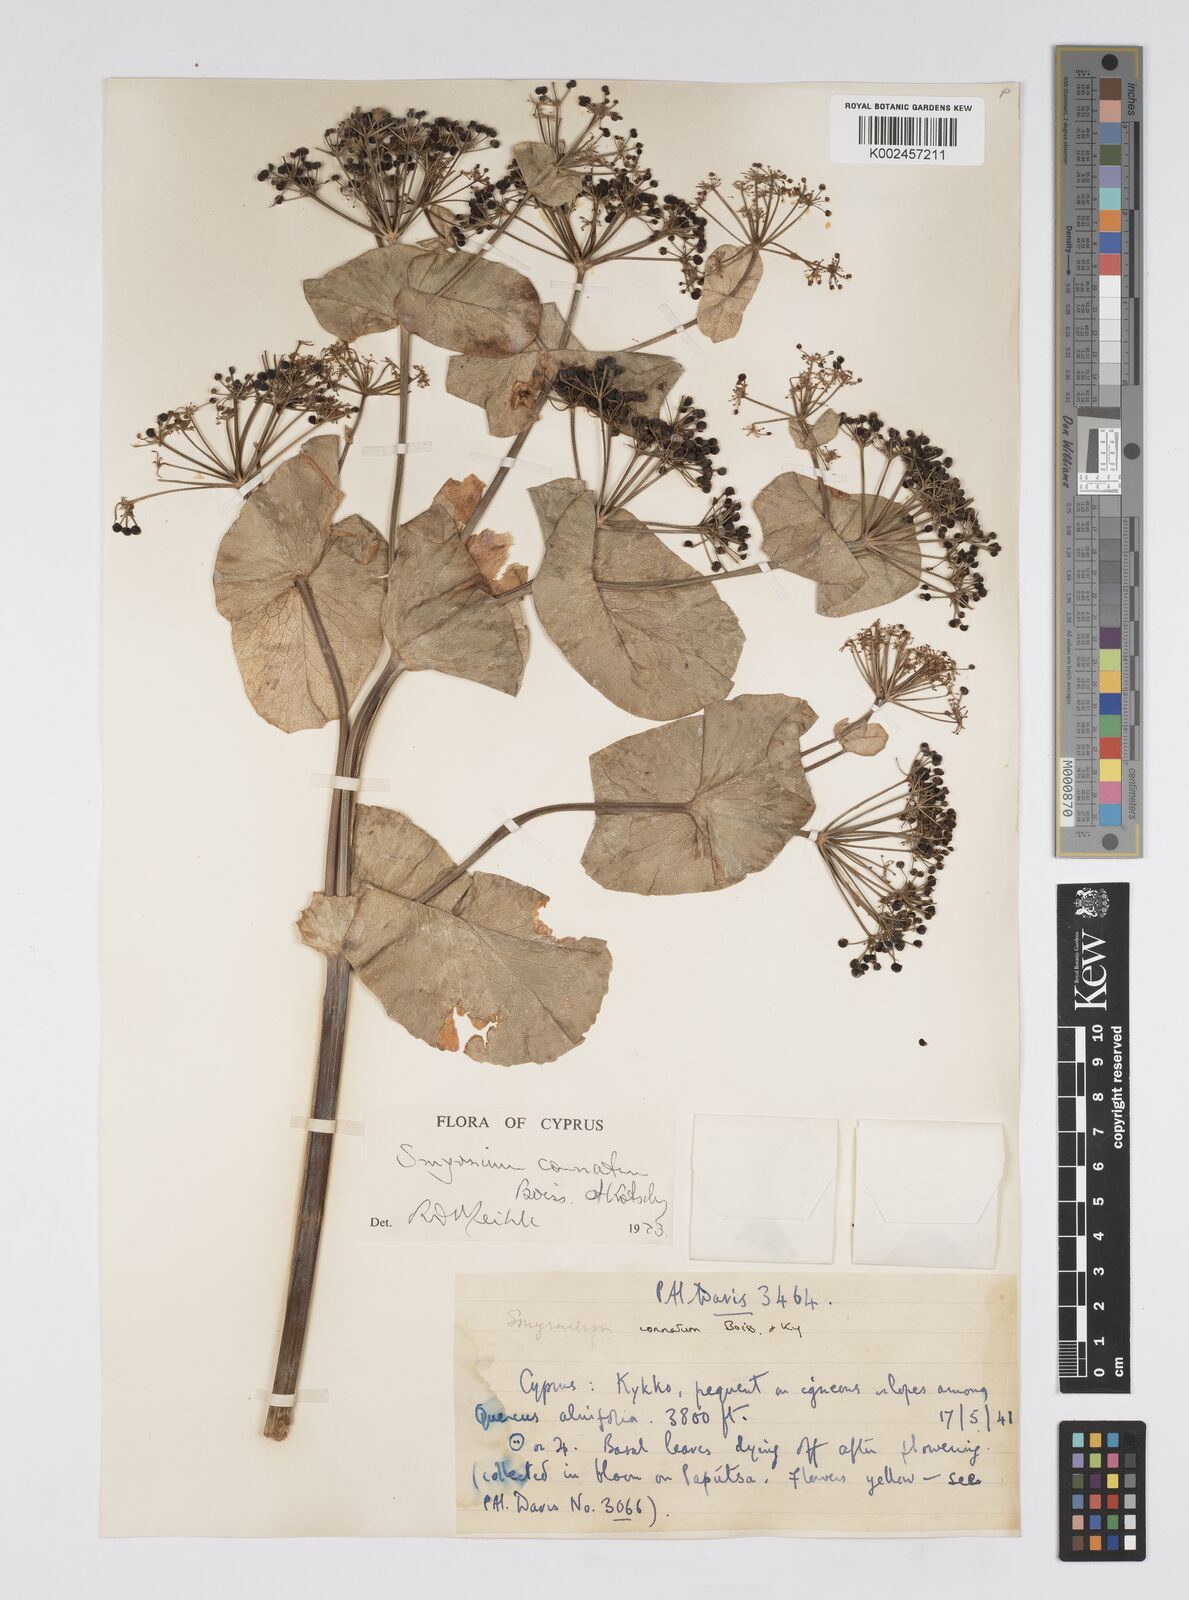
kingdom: Plantae
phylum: Tracheophyta
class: Magnoliopsida
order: Apiales
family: Apiaceae
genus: Smyrnium
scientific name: Smyrnium connatum
